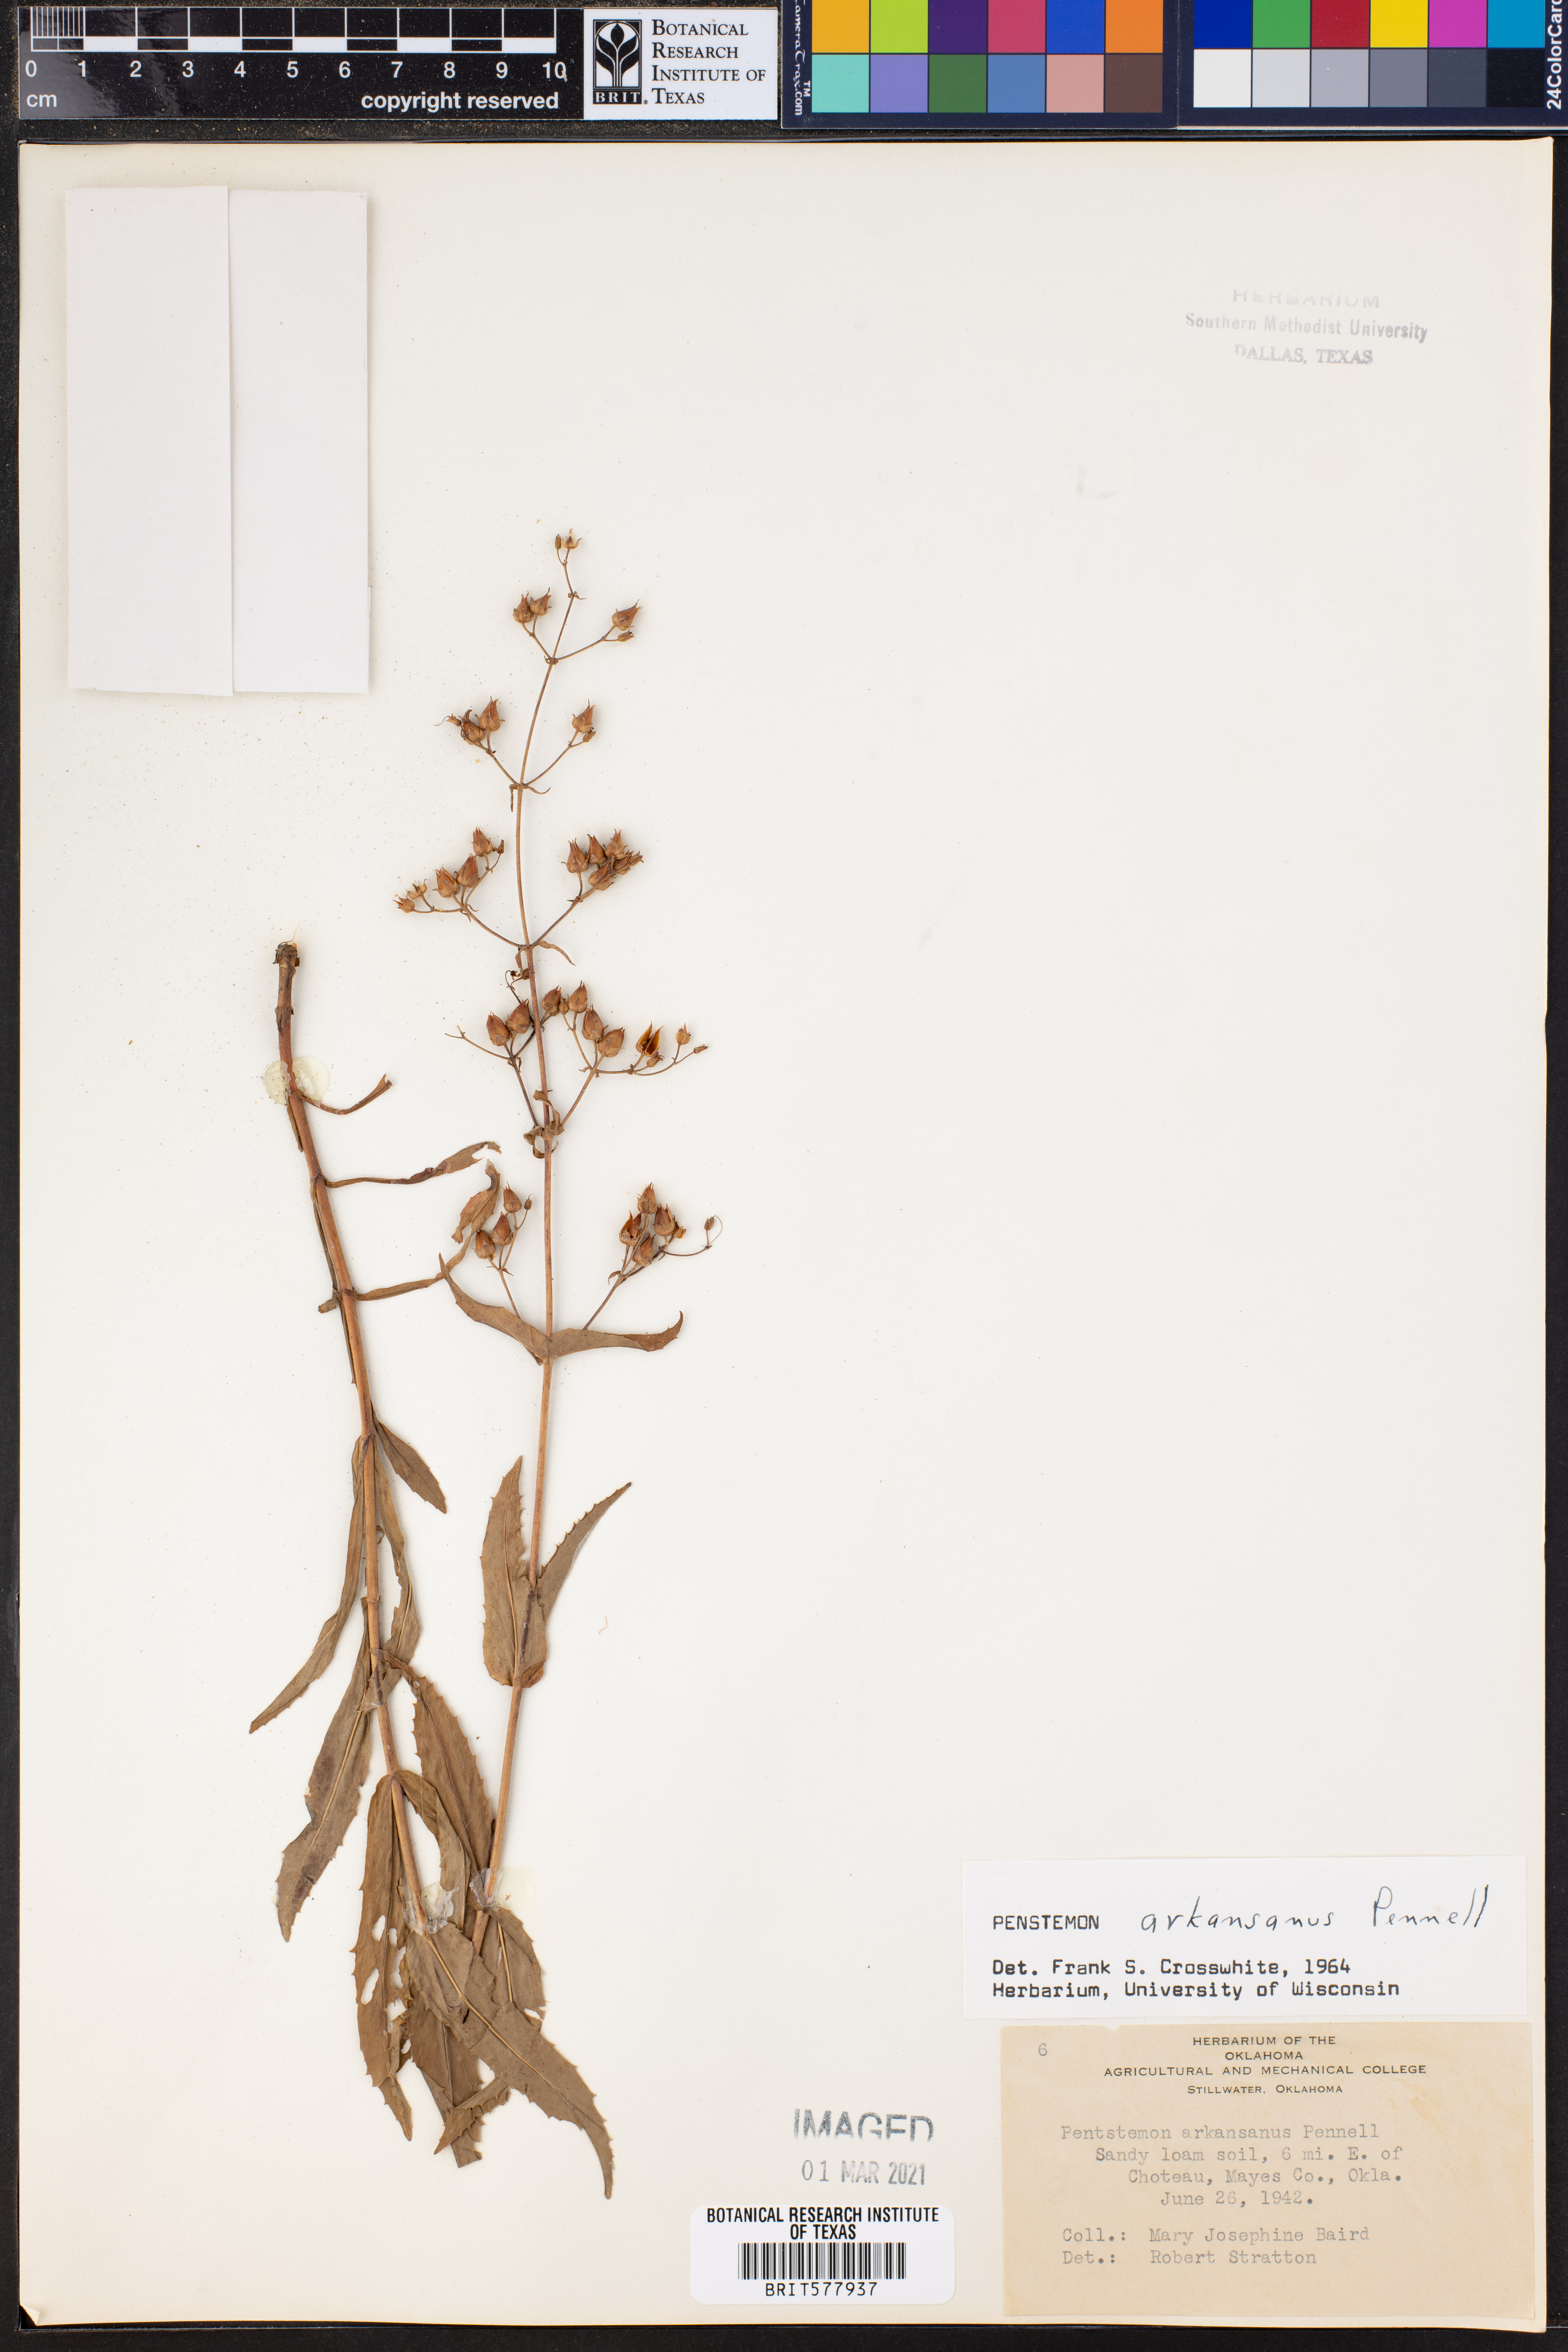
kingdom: Plantae
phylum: Tracheophyta
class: Magnoliopsida
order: Lamiales
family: Plantaginaceae
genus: Penstemon
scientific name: Penstemon arkansanus
